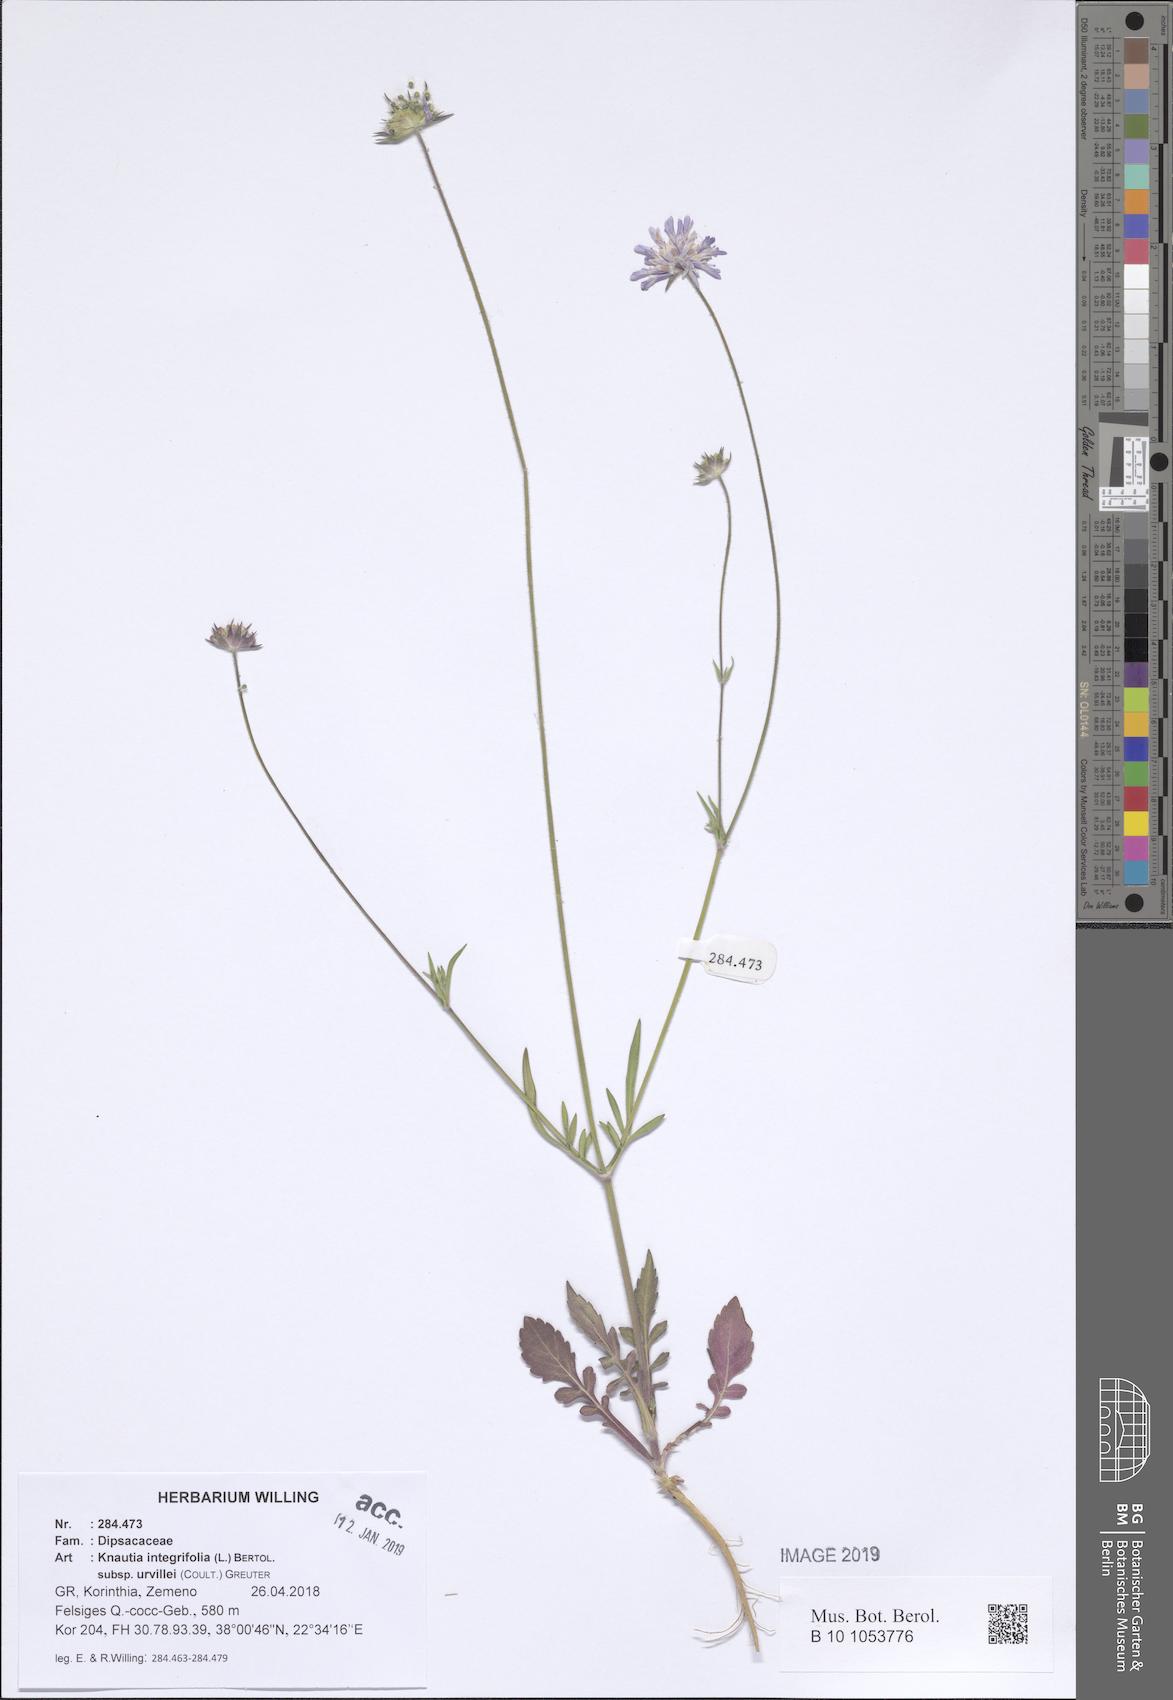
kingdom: Plantae
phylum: Tracheophyta
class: Magnoliopsida
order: Dipsacales
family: Caprifoliaceae
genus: Knautia
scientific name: Knautia integrifolia
